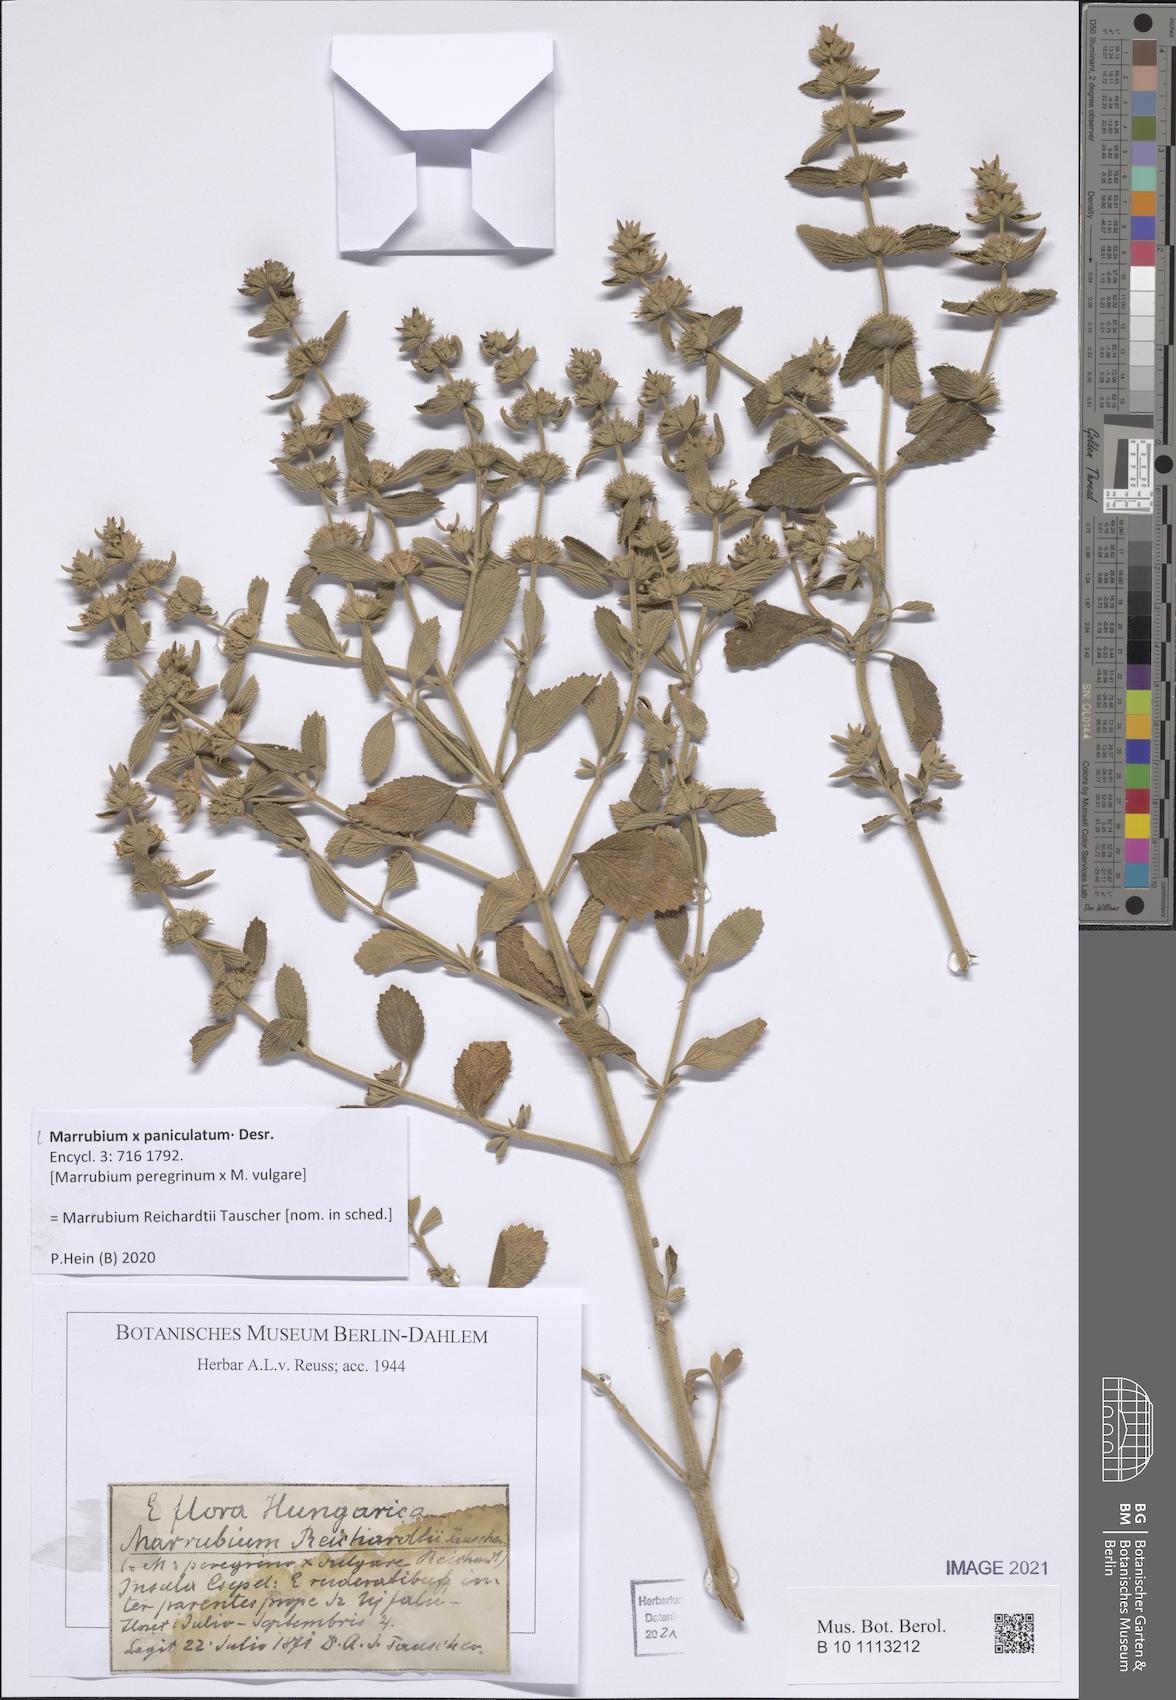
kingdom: Plantae
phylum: Tracheophyta
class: Magnoliopsida
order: Lamiales
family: Lamiaceae
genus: Marrubium
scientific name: Marrubium paniculatum
